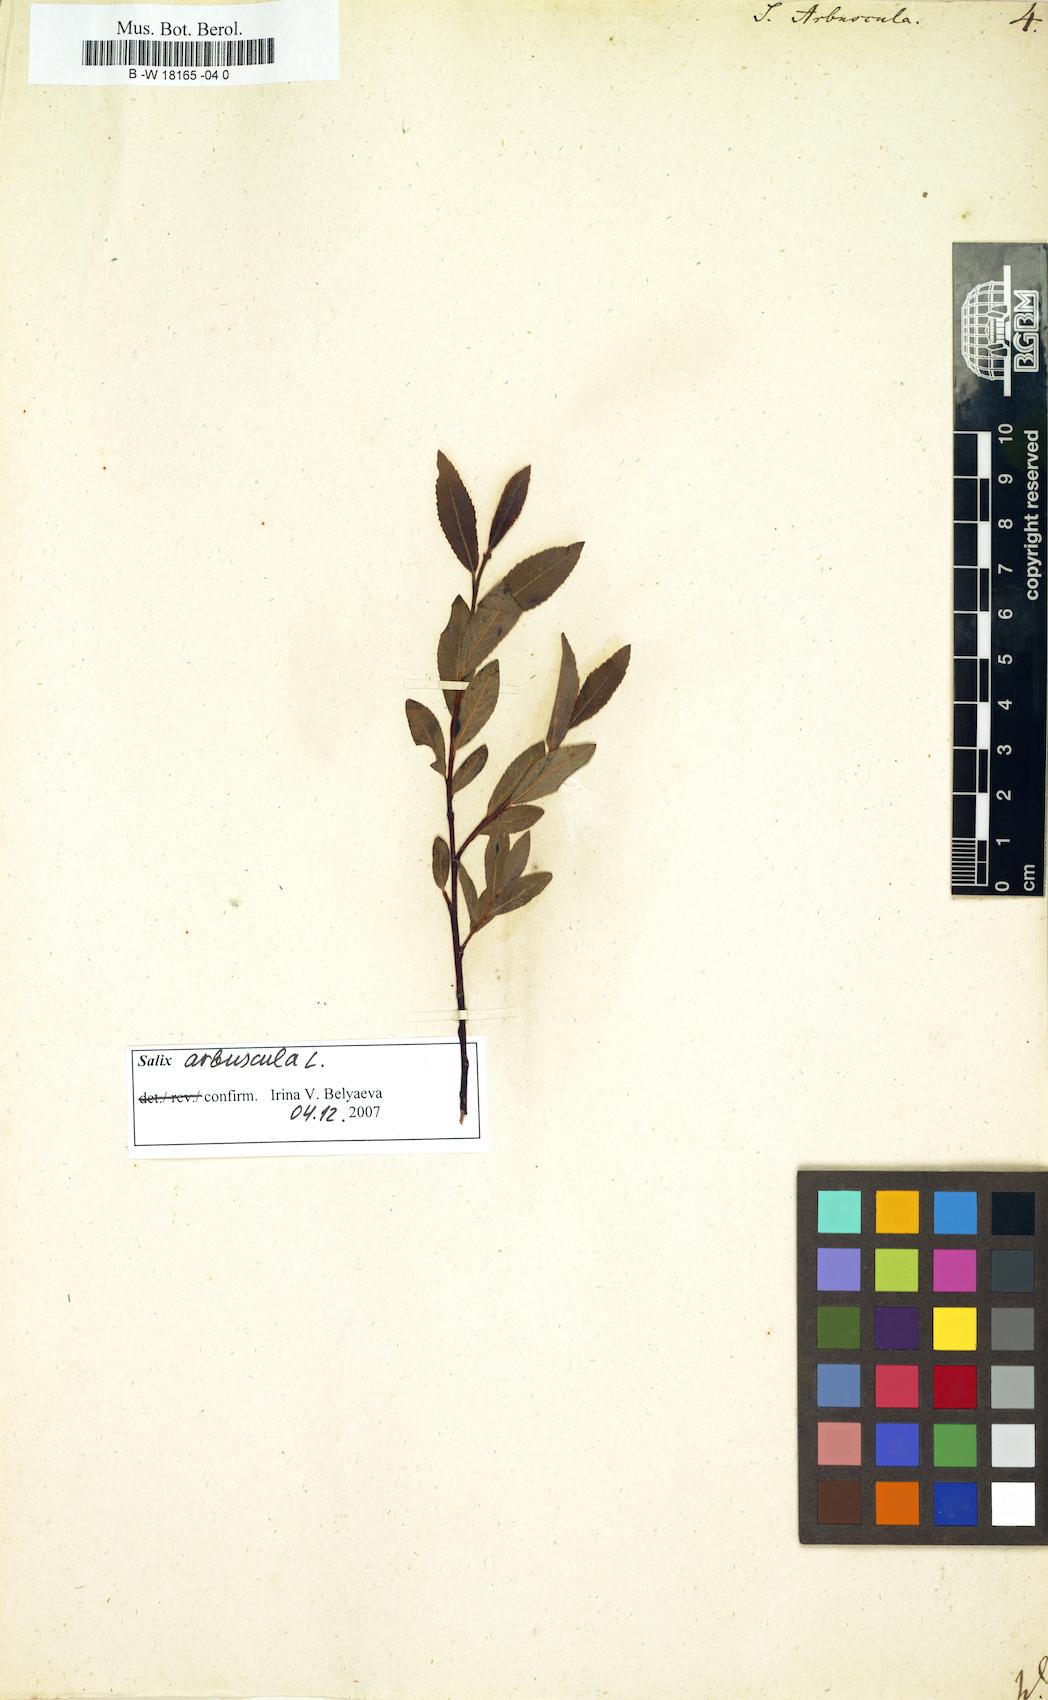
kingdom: Plantae
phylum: Tracheophyta
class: Magnoliopsida
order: Malpighiales
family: Salicaceae
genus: Salix
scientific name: Salix arbuscula
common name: Mountain willow
